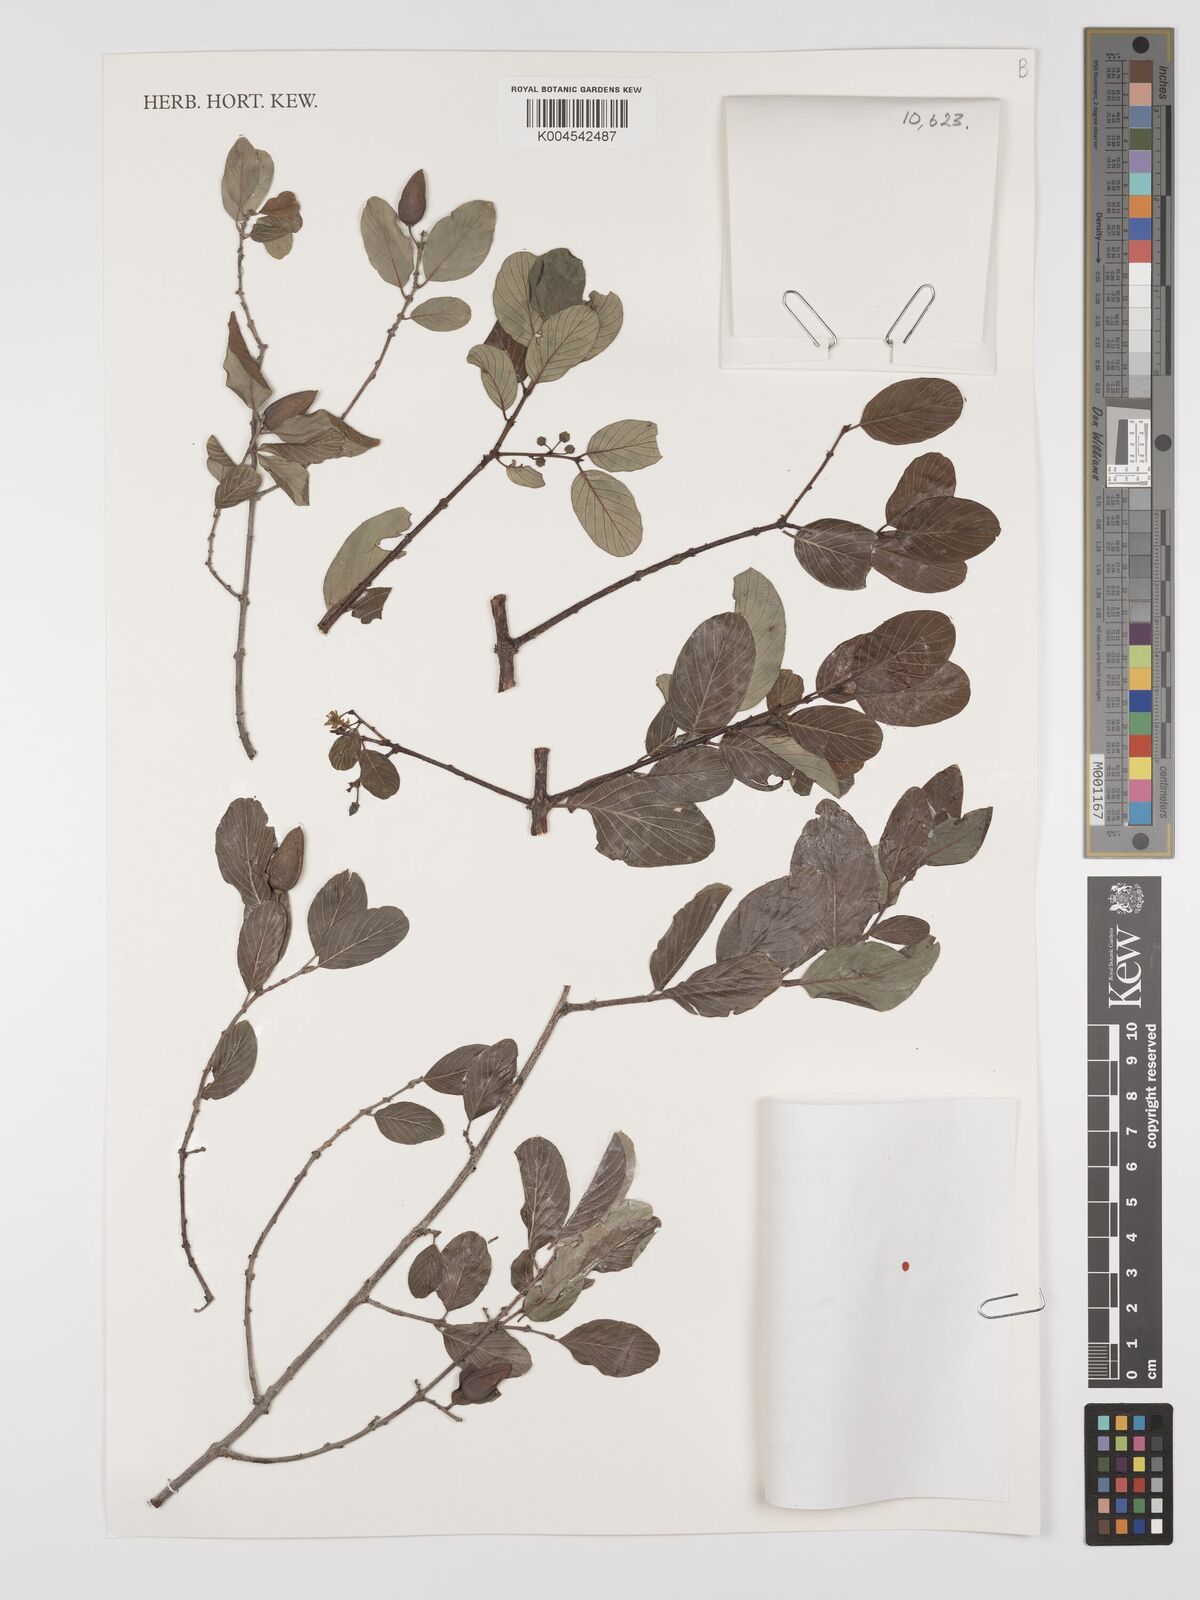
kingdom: Plantae
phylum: Tracheophyta
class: Magnoliopsida
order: Rosales
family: Rhamnaceae
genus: Phyllogeiton
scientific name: Phyllogeiton discolor
